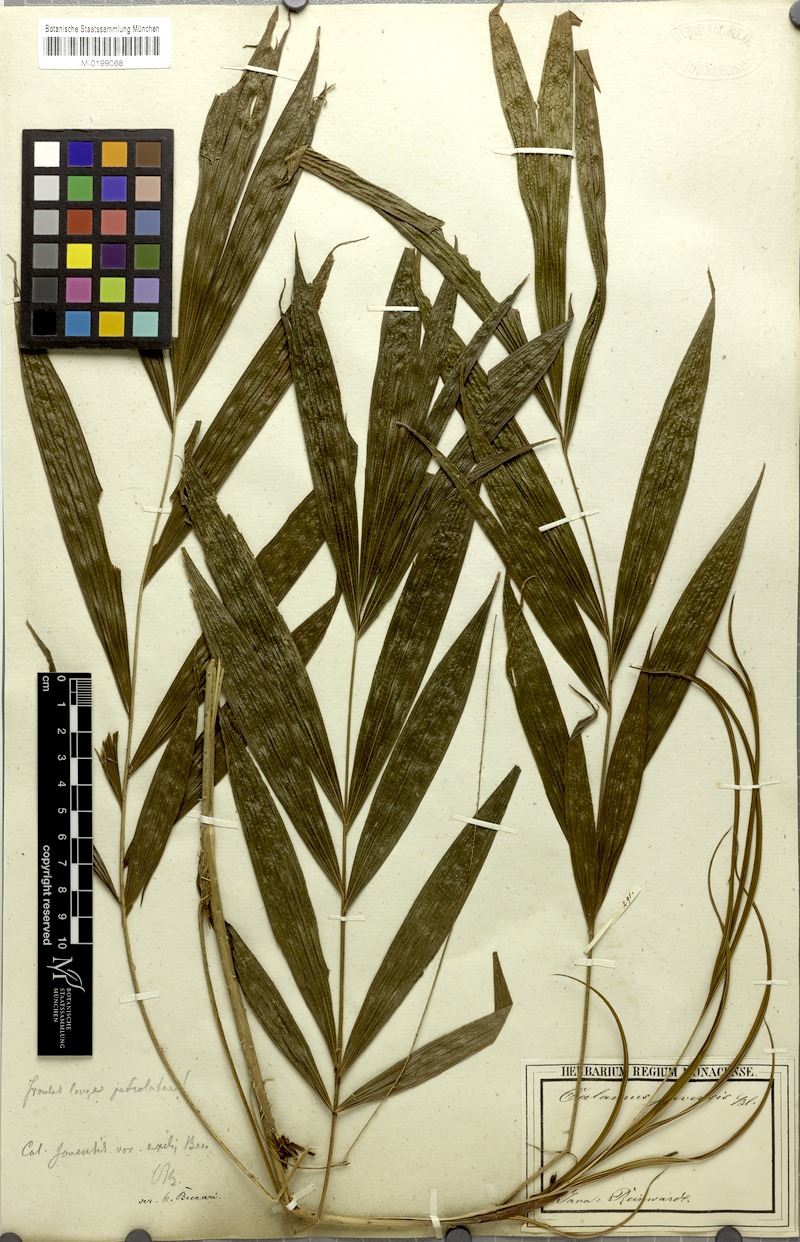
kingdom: Plantae
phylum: Tracheophyta
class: Liliopsida
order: Arecales
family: Arecaceae
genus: Calamus
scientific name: Calamus javensis
